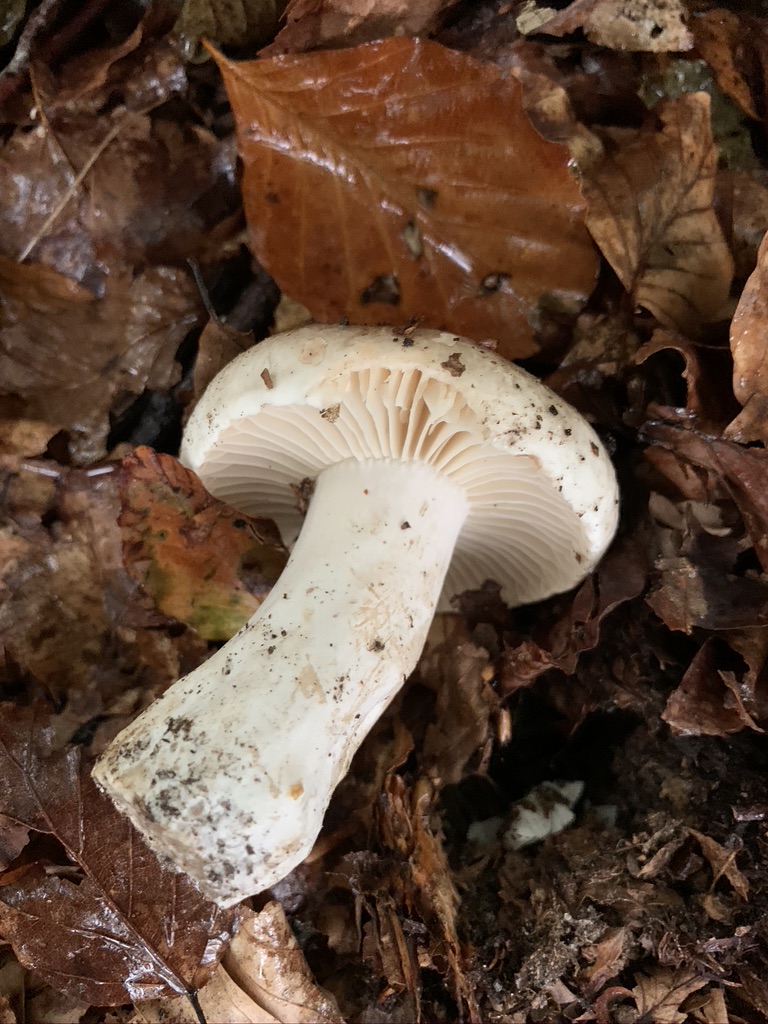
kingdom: Fungi
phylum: Basidiomycota
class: Agaricomycetes
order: Russulales
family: Russulaceae
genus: Russula
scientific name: Russula adusta
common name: sværtende skørhat
